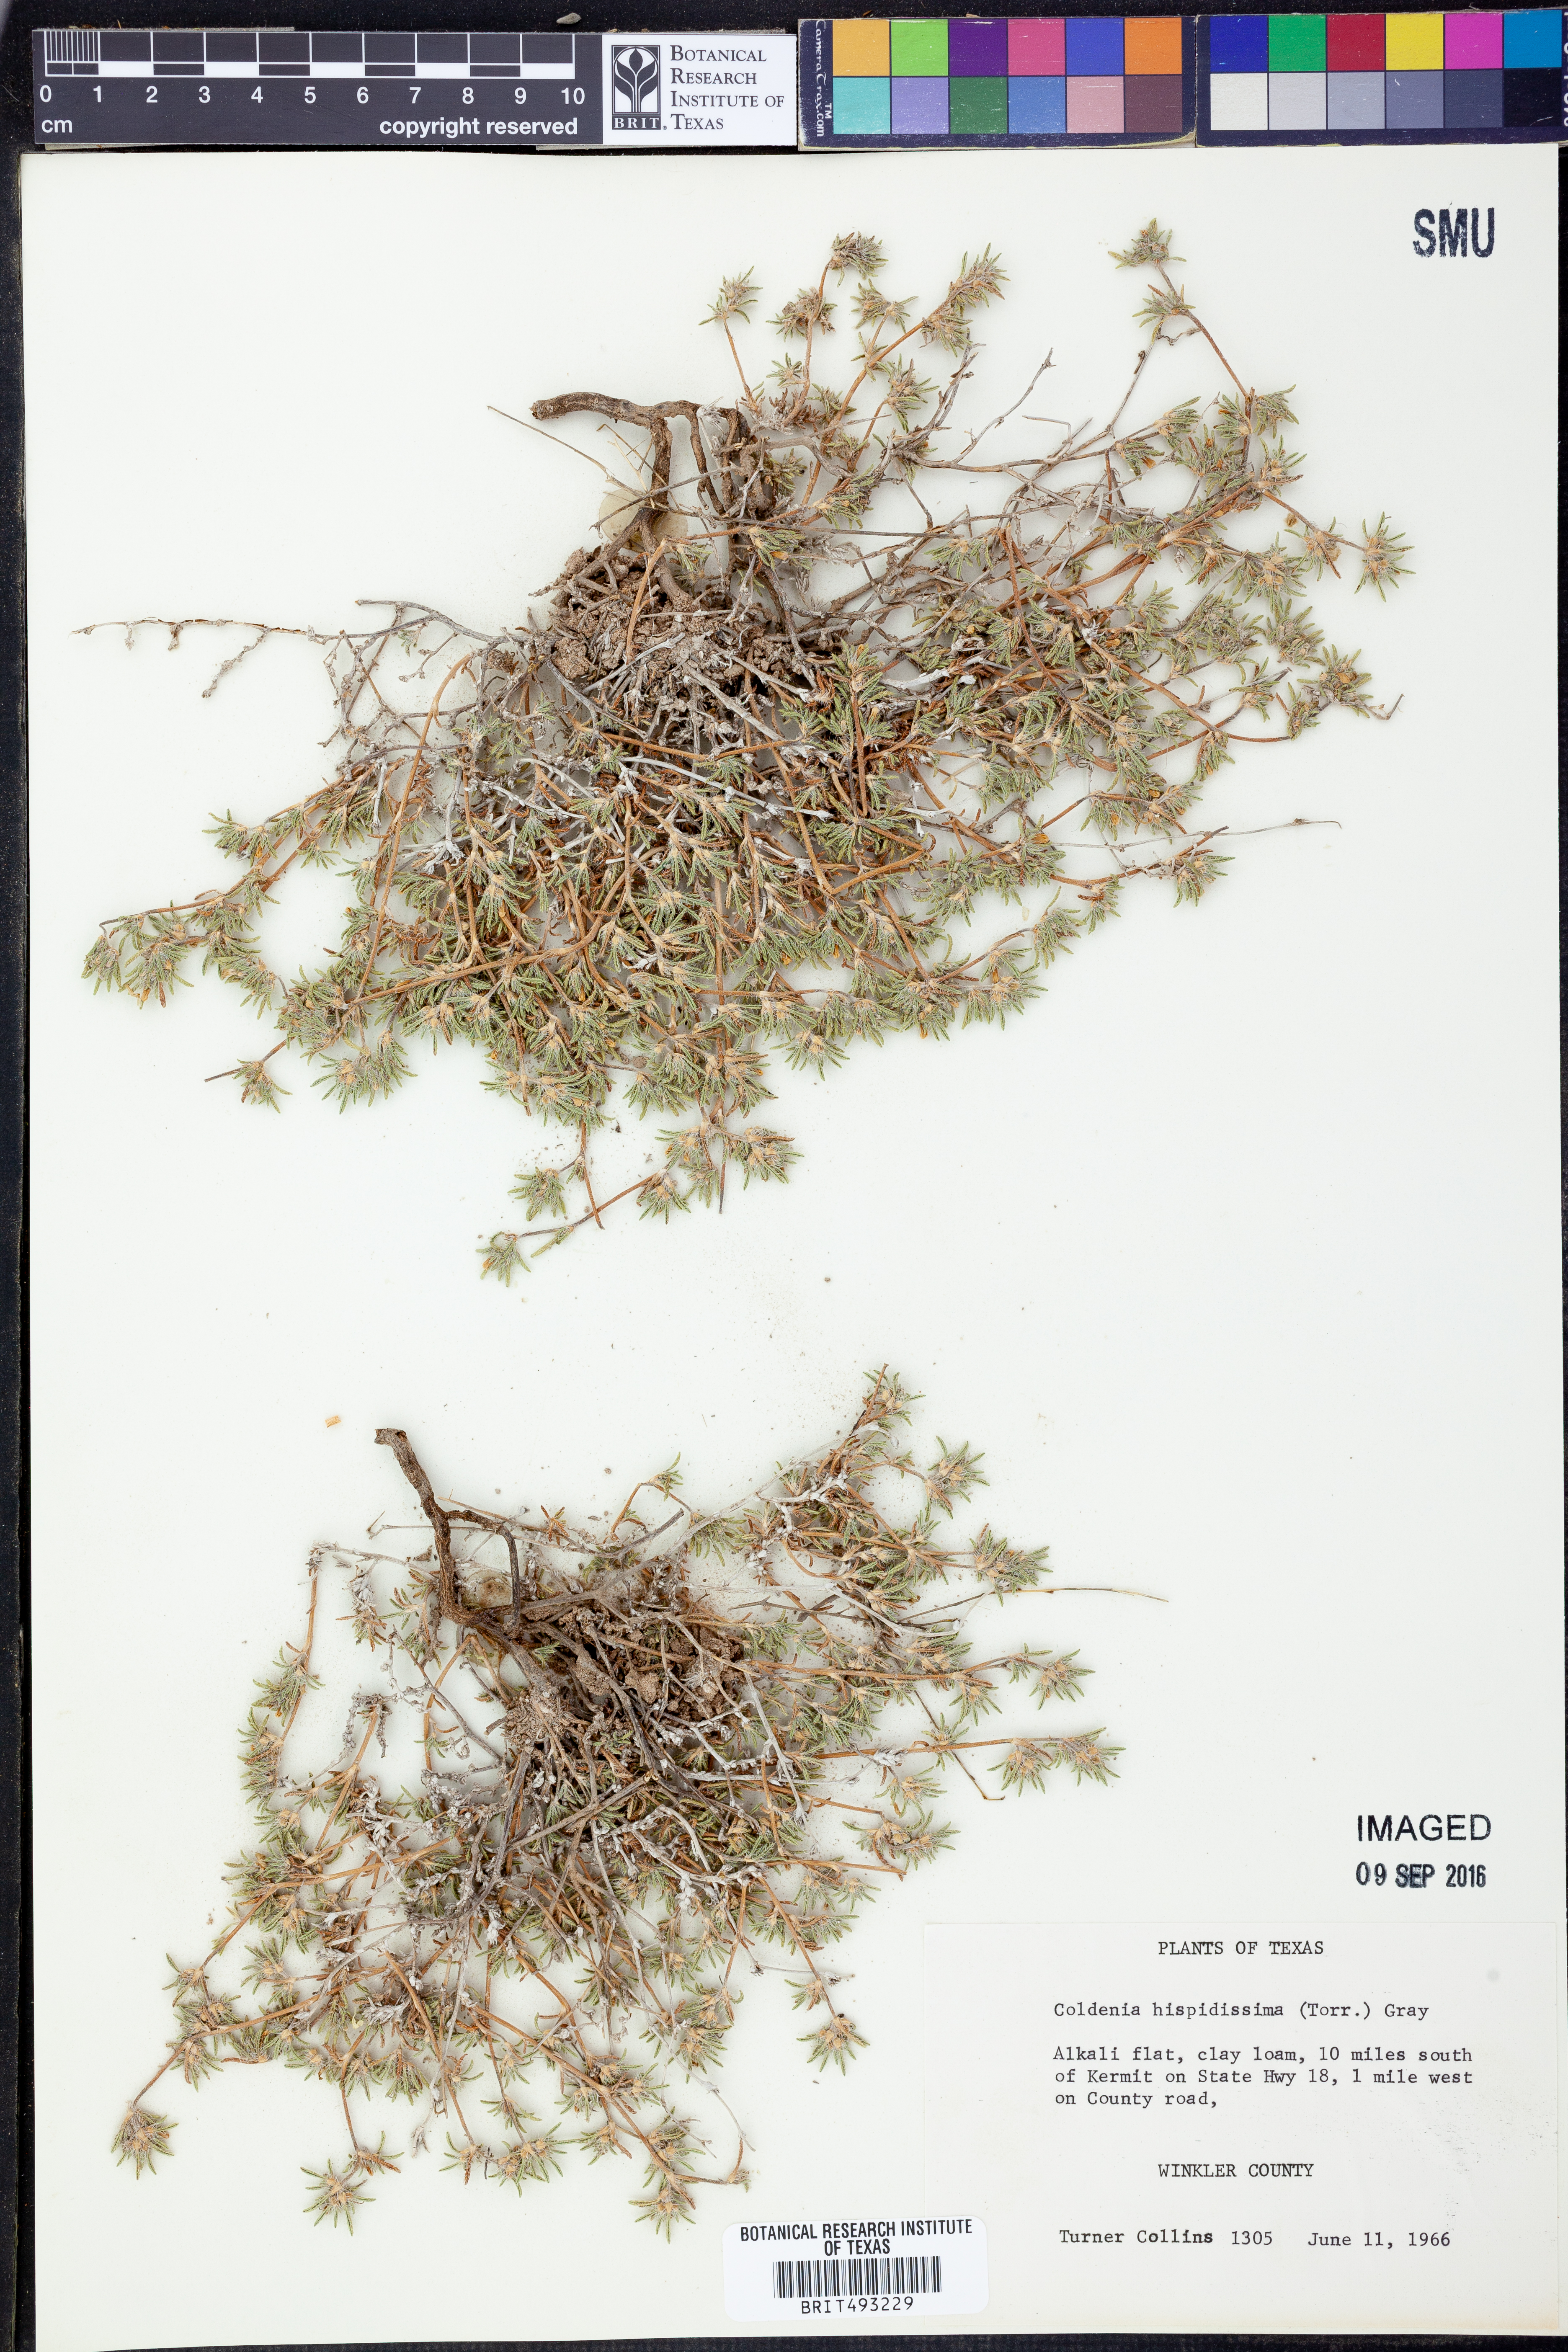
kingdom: Plantae
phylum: Tracheophyta
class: Magnoliopsida
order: Boraginales
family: Ehretiaceae
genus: Tiquilia
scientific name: Tiquilia hispidissima
